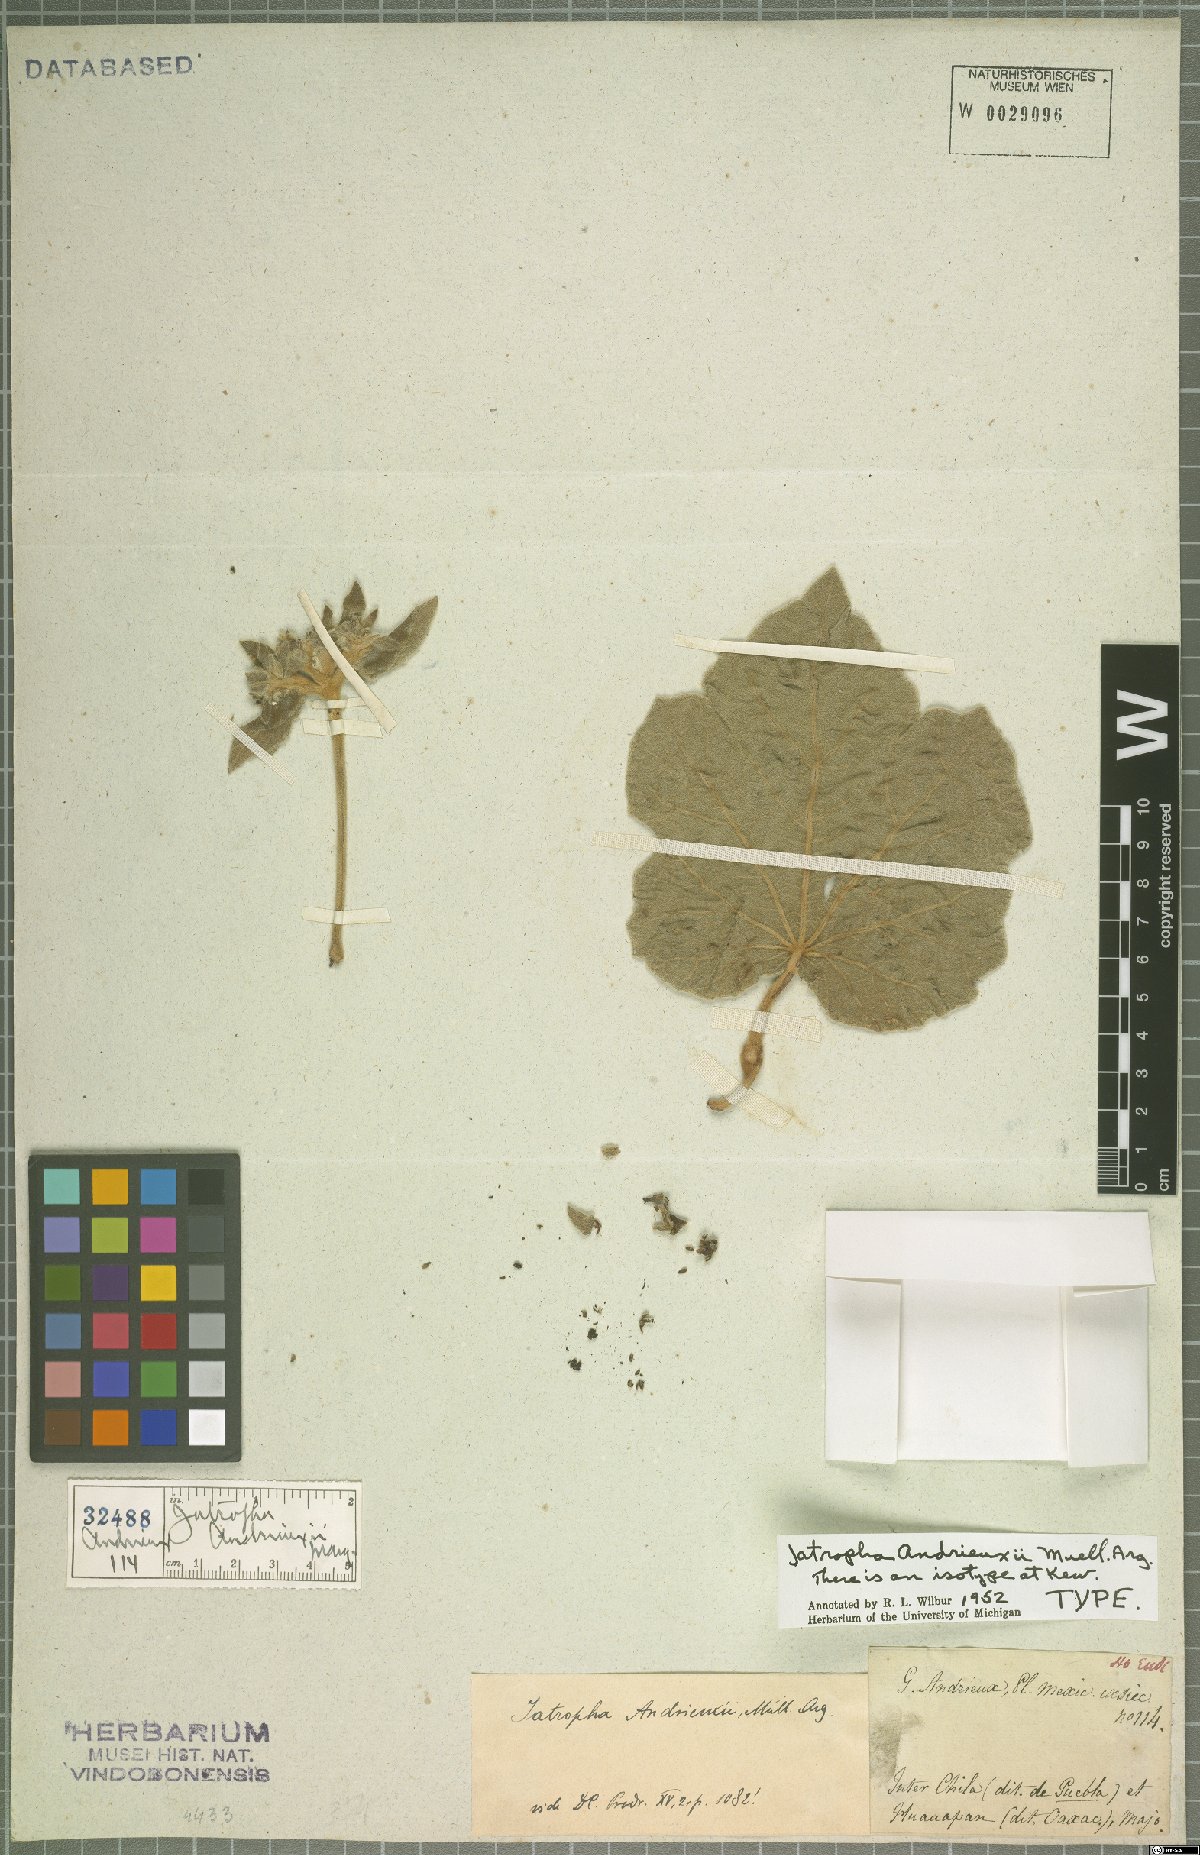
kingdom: Plantae
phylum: Tracheophyta
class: Magnoliopsida
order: Malpighiales
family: Euphorbiaceae
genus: Jatropha
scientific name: Jatropha andrieuxii
